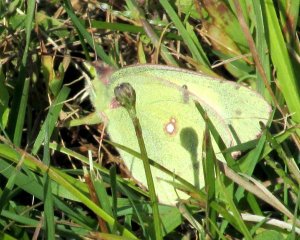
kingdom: Animalia
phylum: Arthropoda
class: Insecta
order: Lepidoptera
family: Pieridae
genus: Colias
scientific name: Colias philodice
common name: Clouded Sulphur
